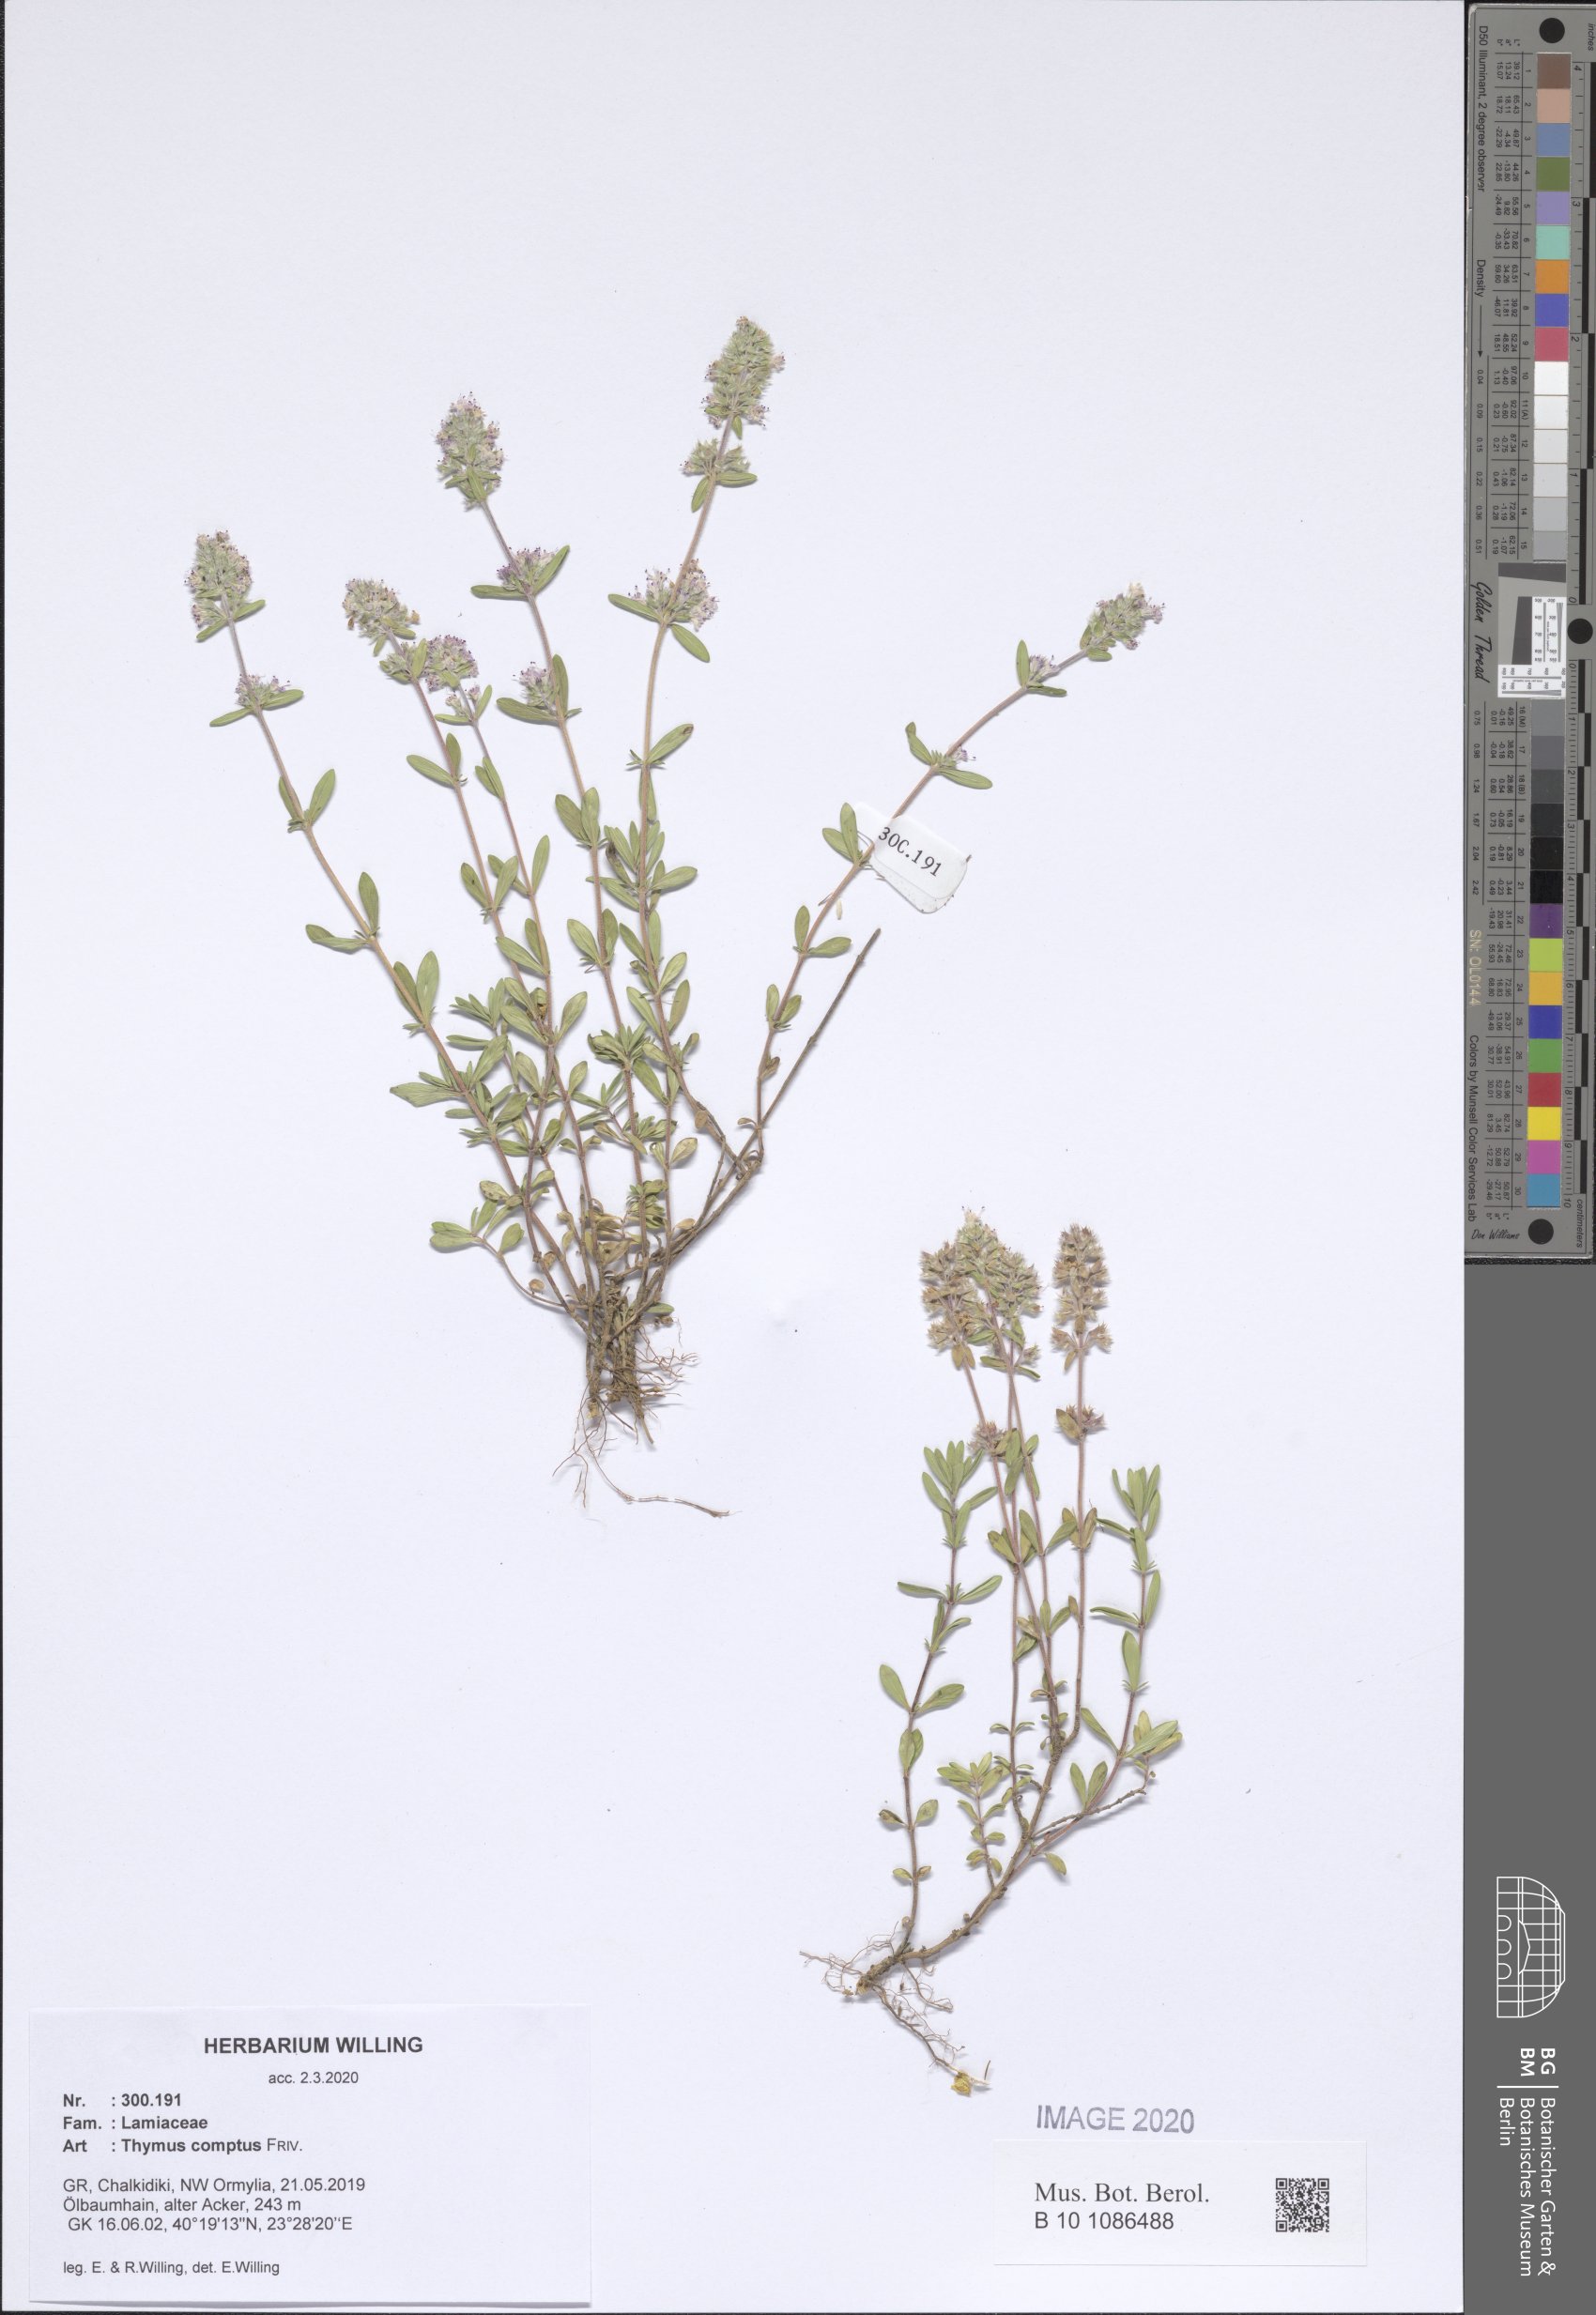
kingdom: Plantae
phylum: Tracheophyta
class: Magnoliopsida
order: Lamiales
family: Lamiaceae
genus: Thymus
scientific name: Thymus sibthorpii
